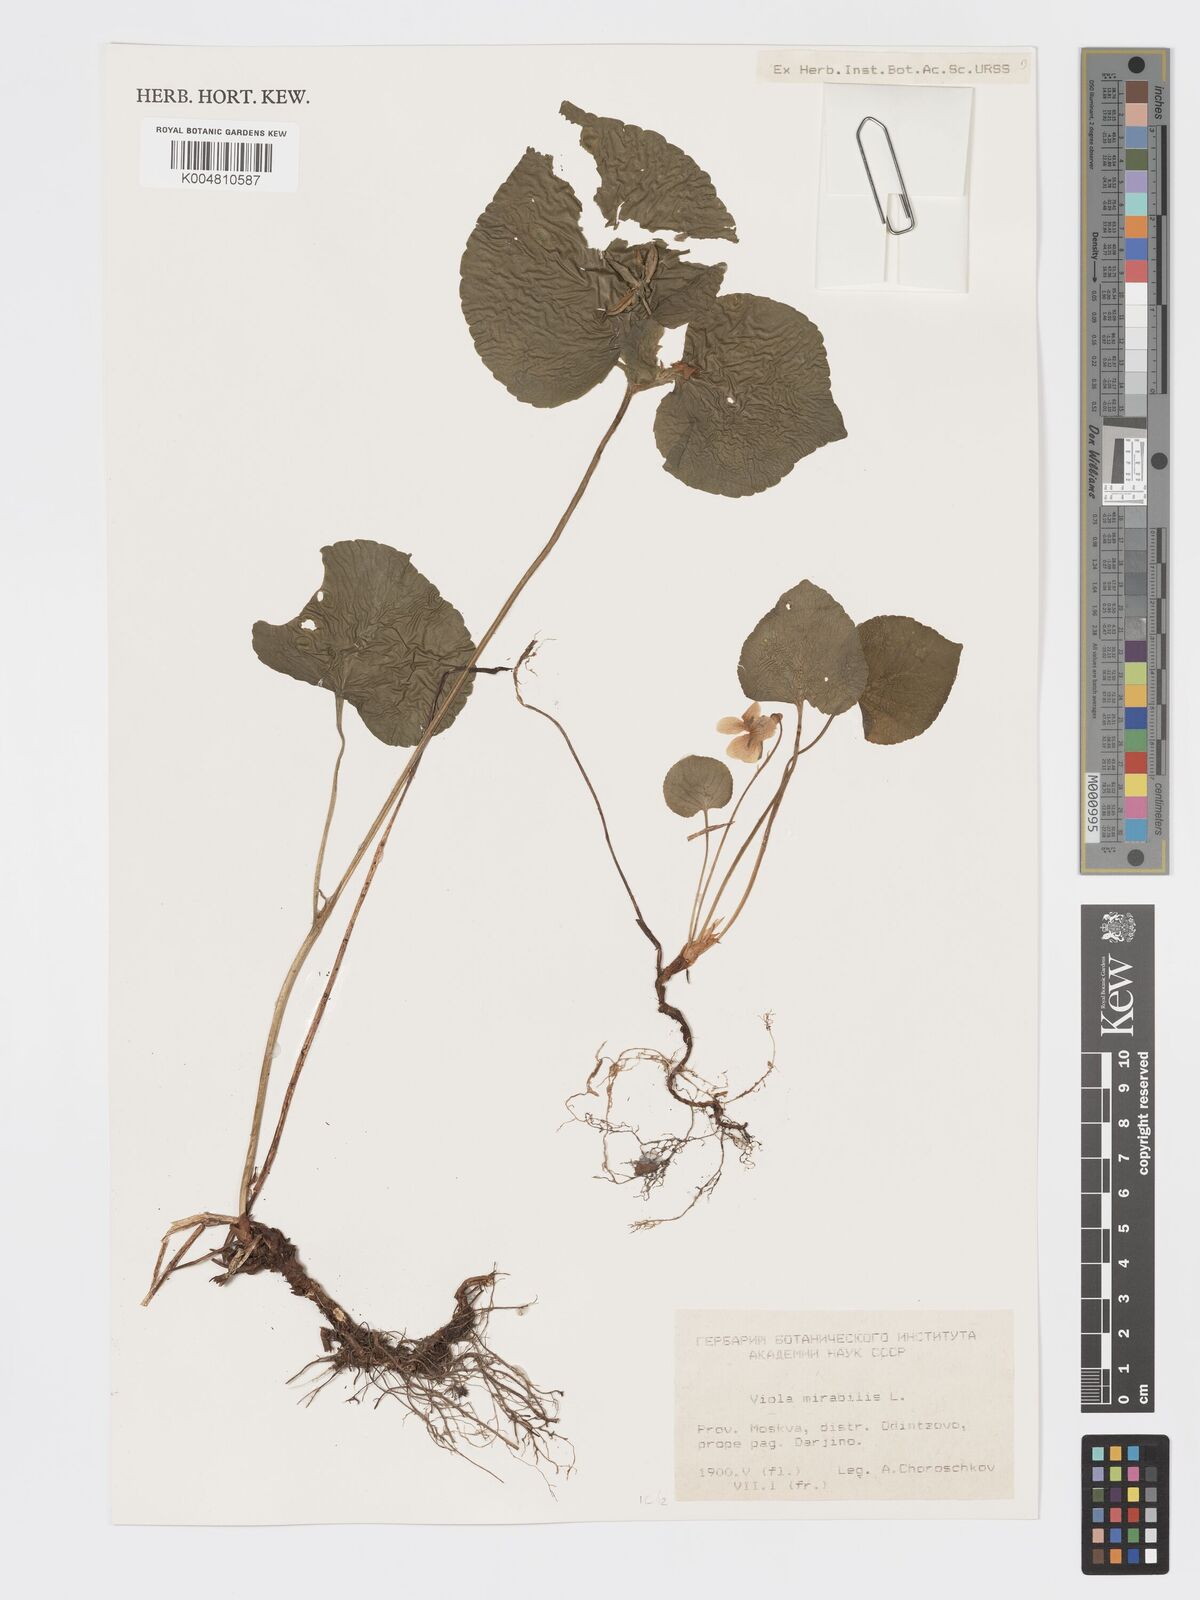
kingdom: Plantae
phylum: Tracheophyta
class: Magnoliopsida
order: Malpighiales
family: Violaceae
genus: Viola
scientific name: Viola mirabilis
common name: Wonder violet
